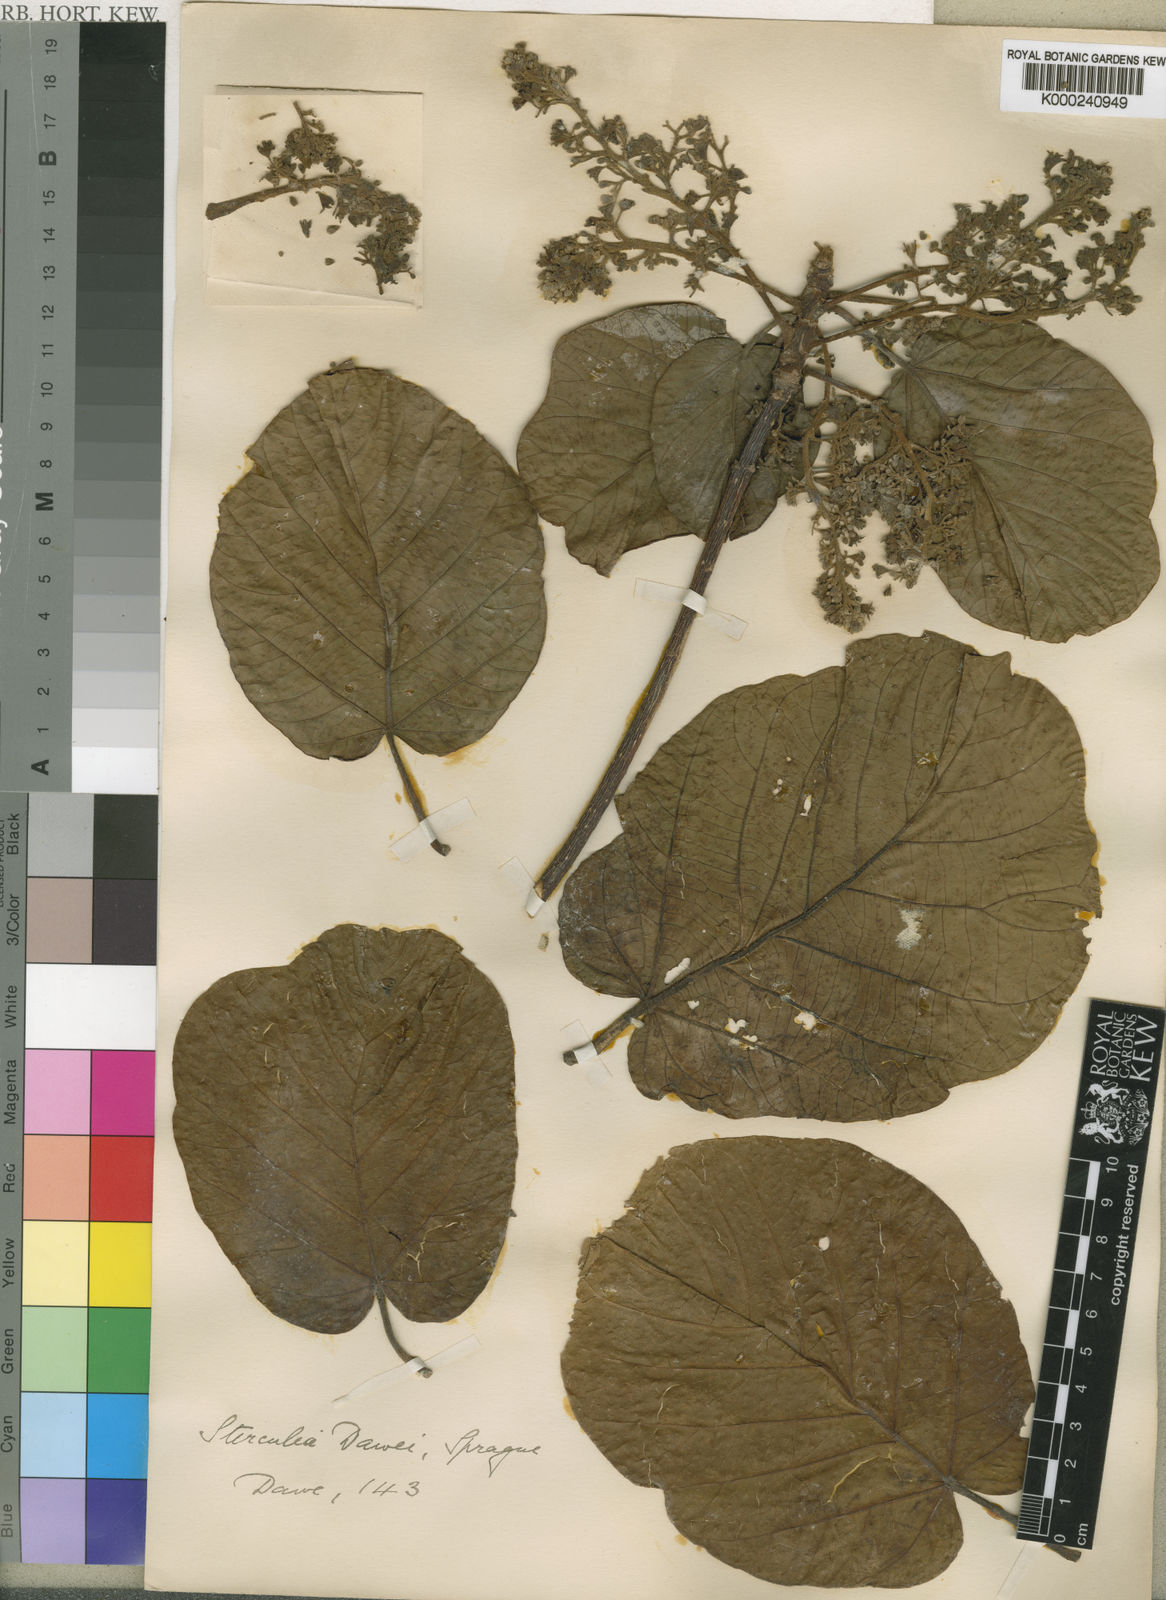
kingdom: Plantae
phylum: Tracheophyta
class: Magnoliopsida
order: Malvales
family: Malvaceae
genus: Sterculia
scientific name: Sterculia dawei
